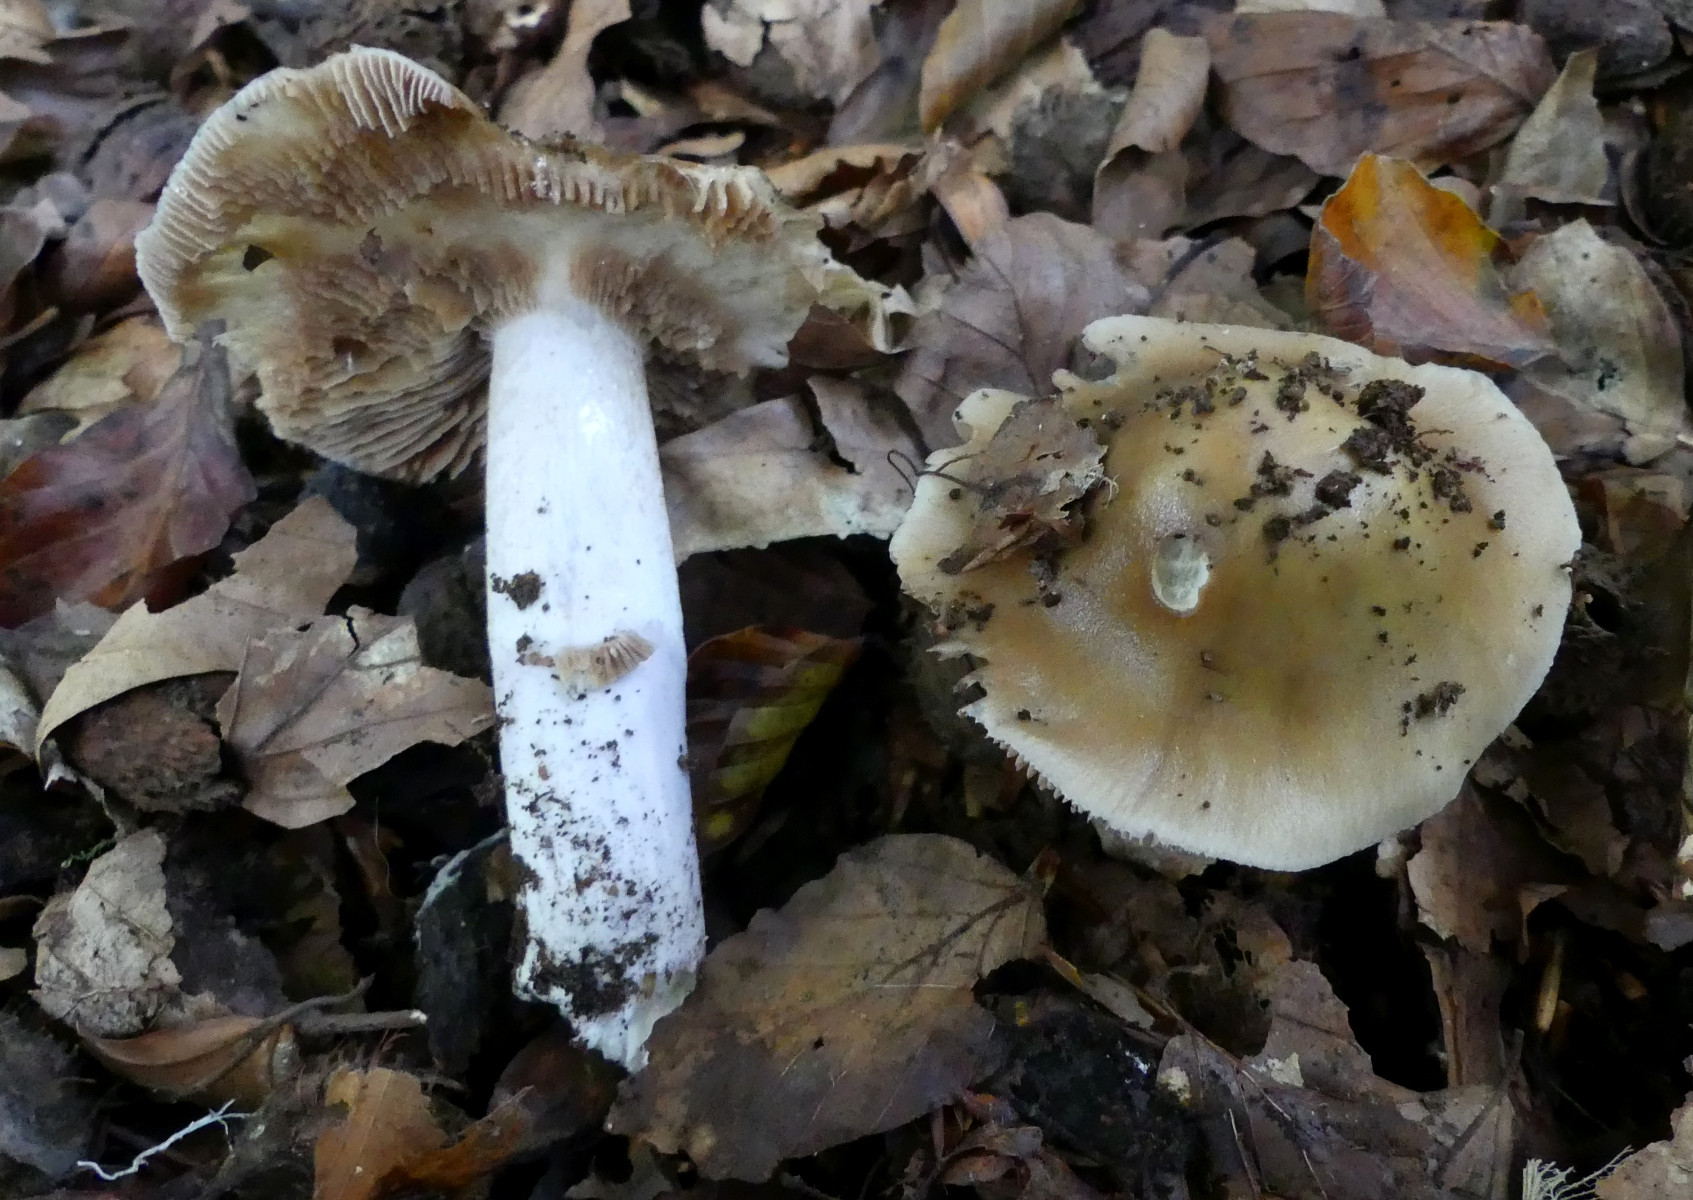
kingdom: Fungi
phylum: Basidiomycota
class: Agaricomycetes
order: Agaricales
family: Cortinariaceae
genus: Cortinarius
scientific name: Cortinarius elatior
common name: høj slørhat
